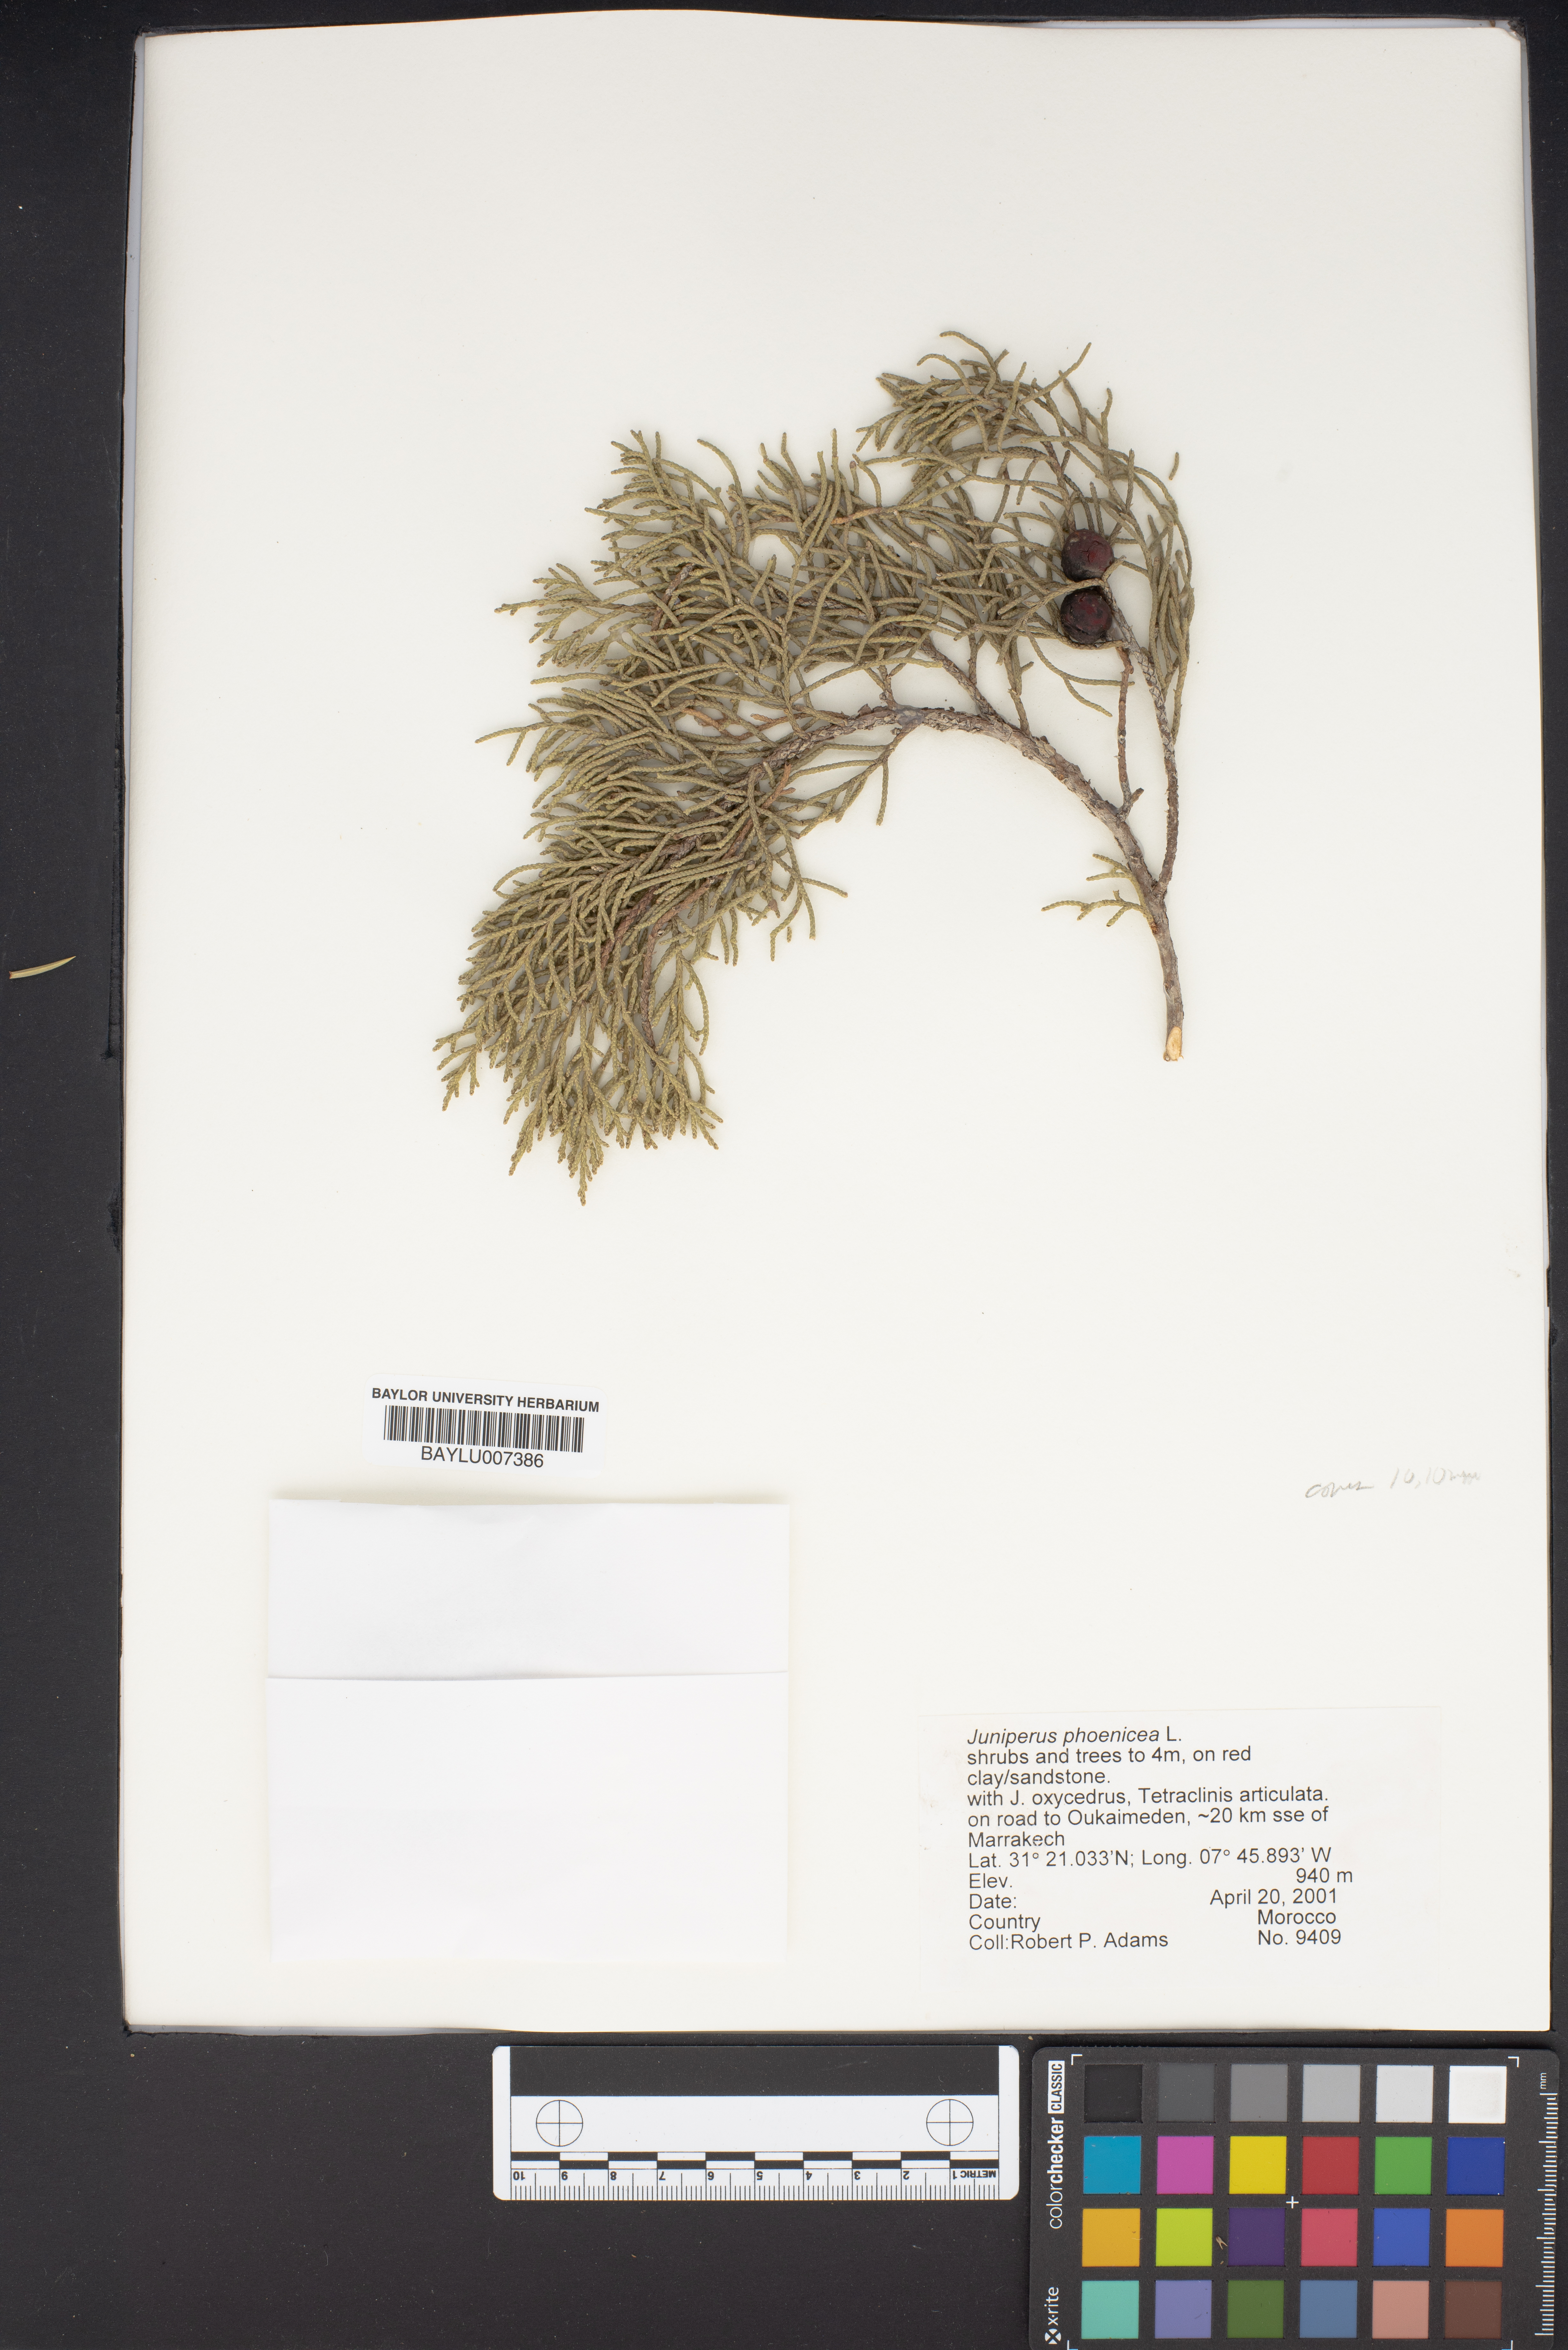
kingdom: Plantae
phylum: Tracheophyta
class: Pinopsida
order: Pinales
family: Cupressaceae
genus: Juniperus
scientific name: Juniperus phoenicea
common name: Phoenician juniper
